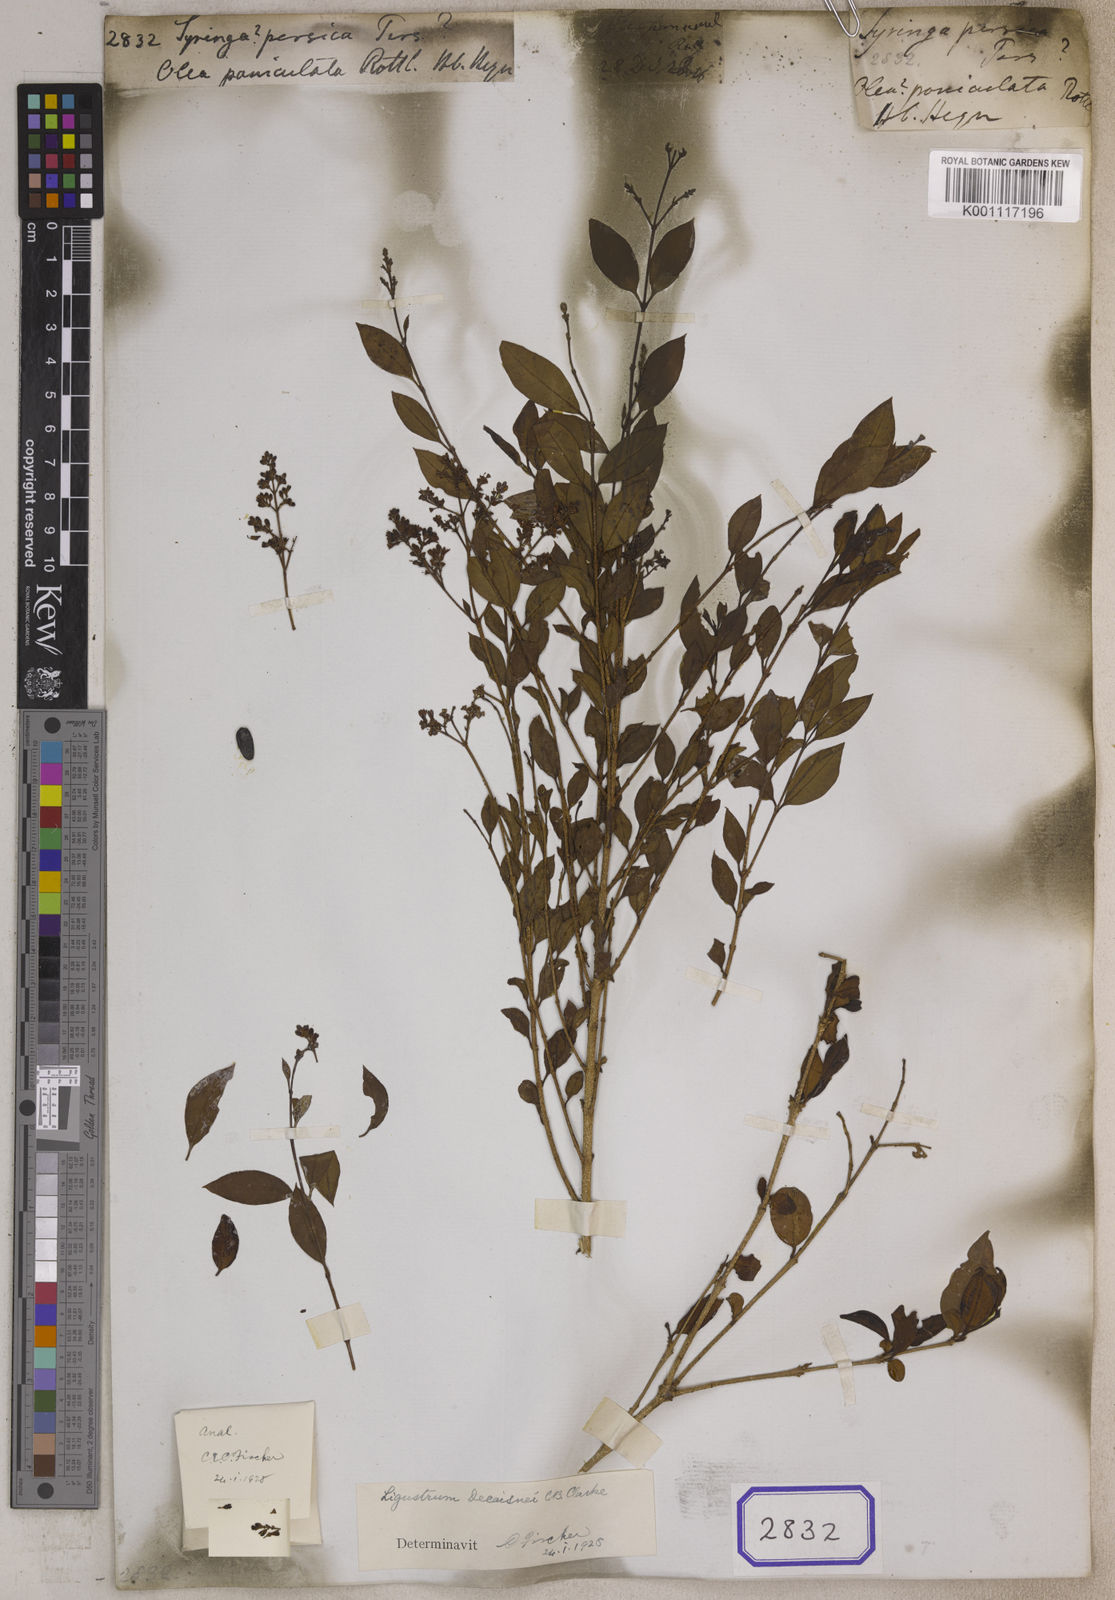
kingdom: Plantae
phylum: Tracheophyta
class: Magnoliopsida
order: Lamiales
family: Oleaceae
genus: Syringa
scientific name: Syringa persica
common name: Persian lilac
